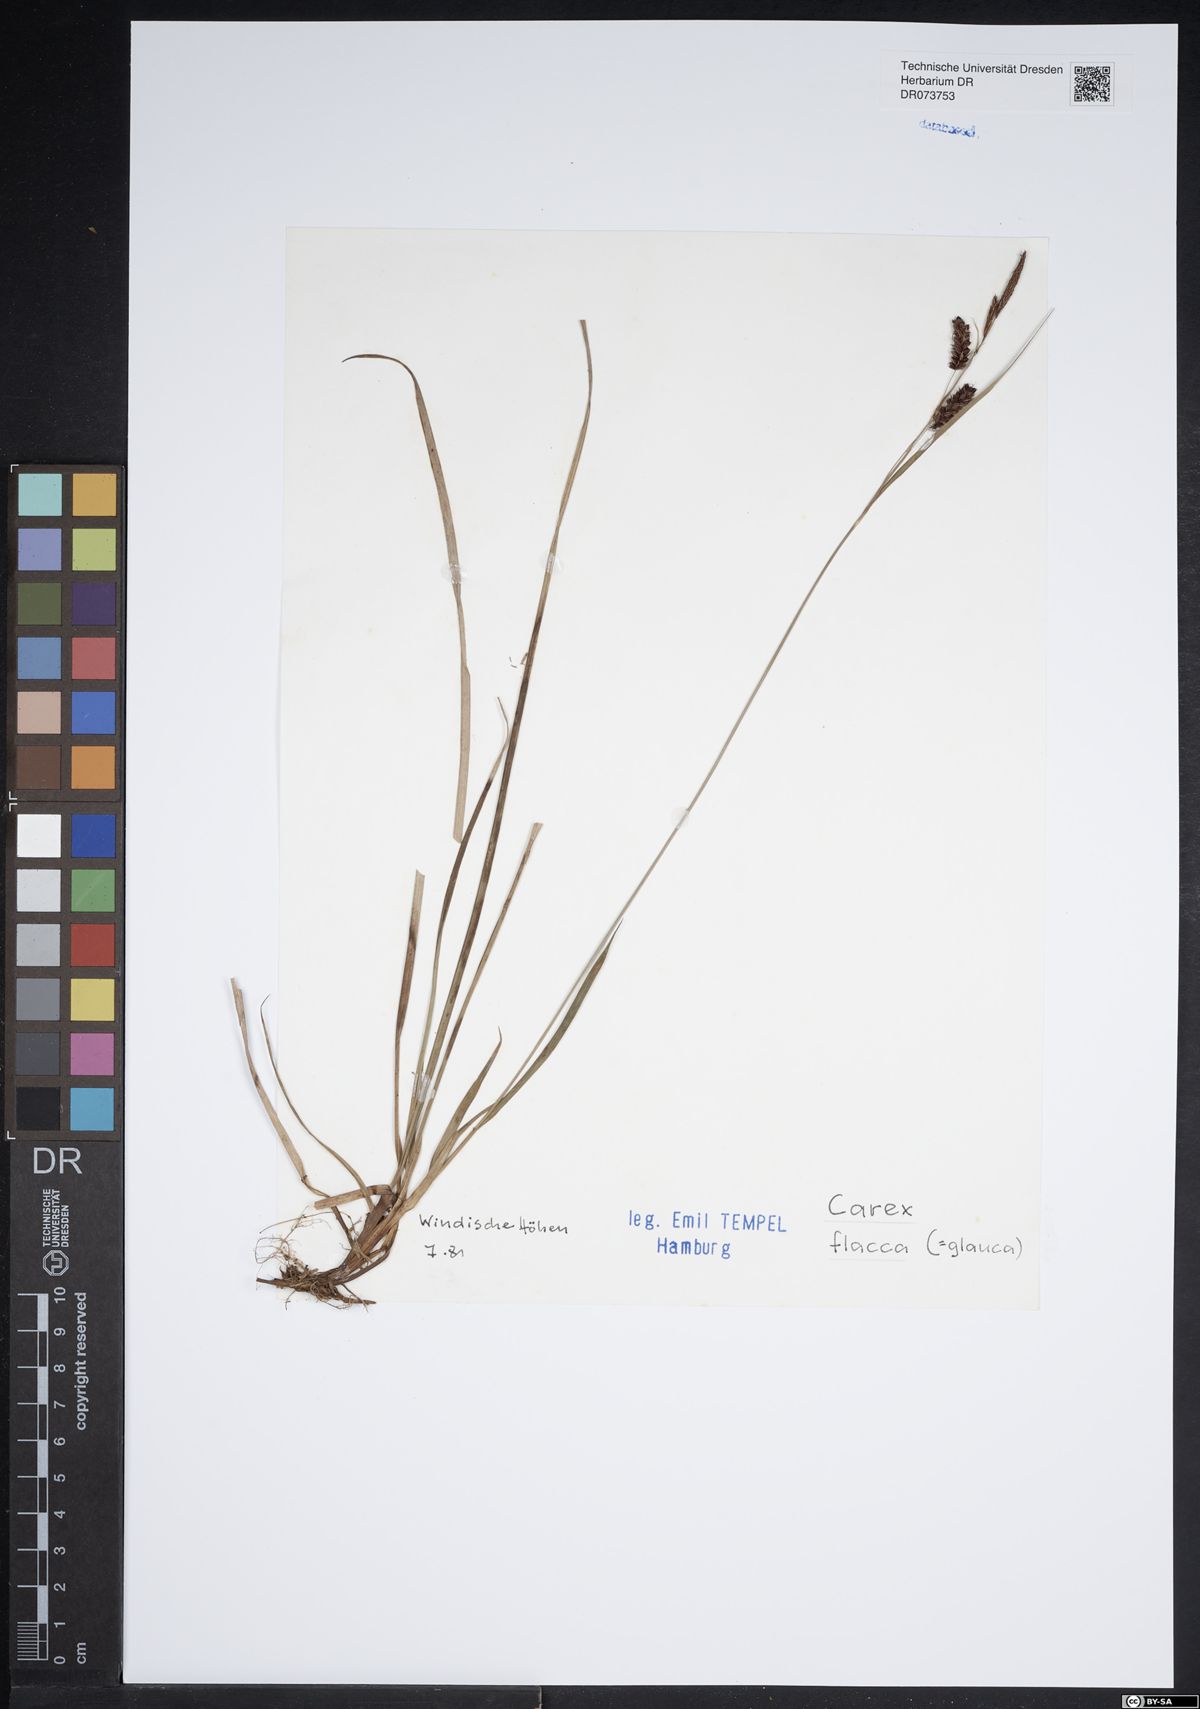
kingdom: Plantae
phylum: Tracheophyta
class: Liliopsida
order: Poales
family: Cyperaceae
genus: Carex
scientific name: Carex flacca
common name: Glaucous sedge
